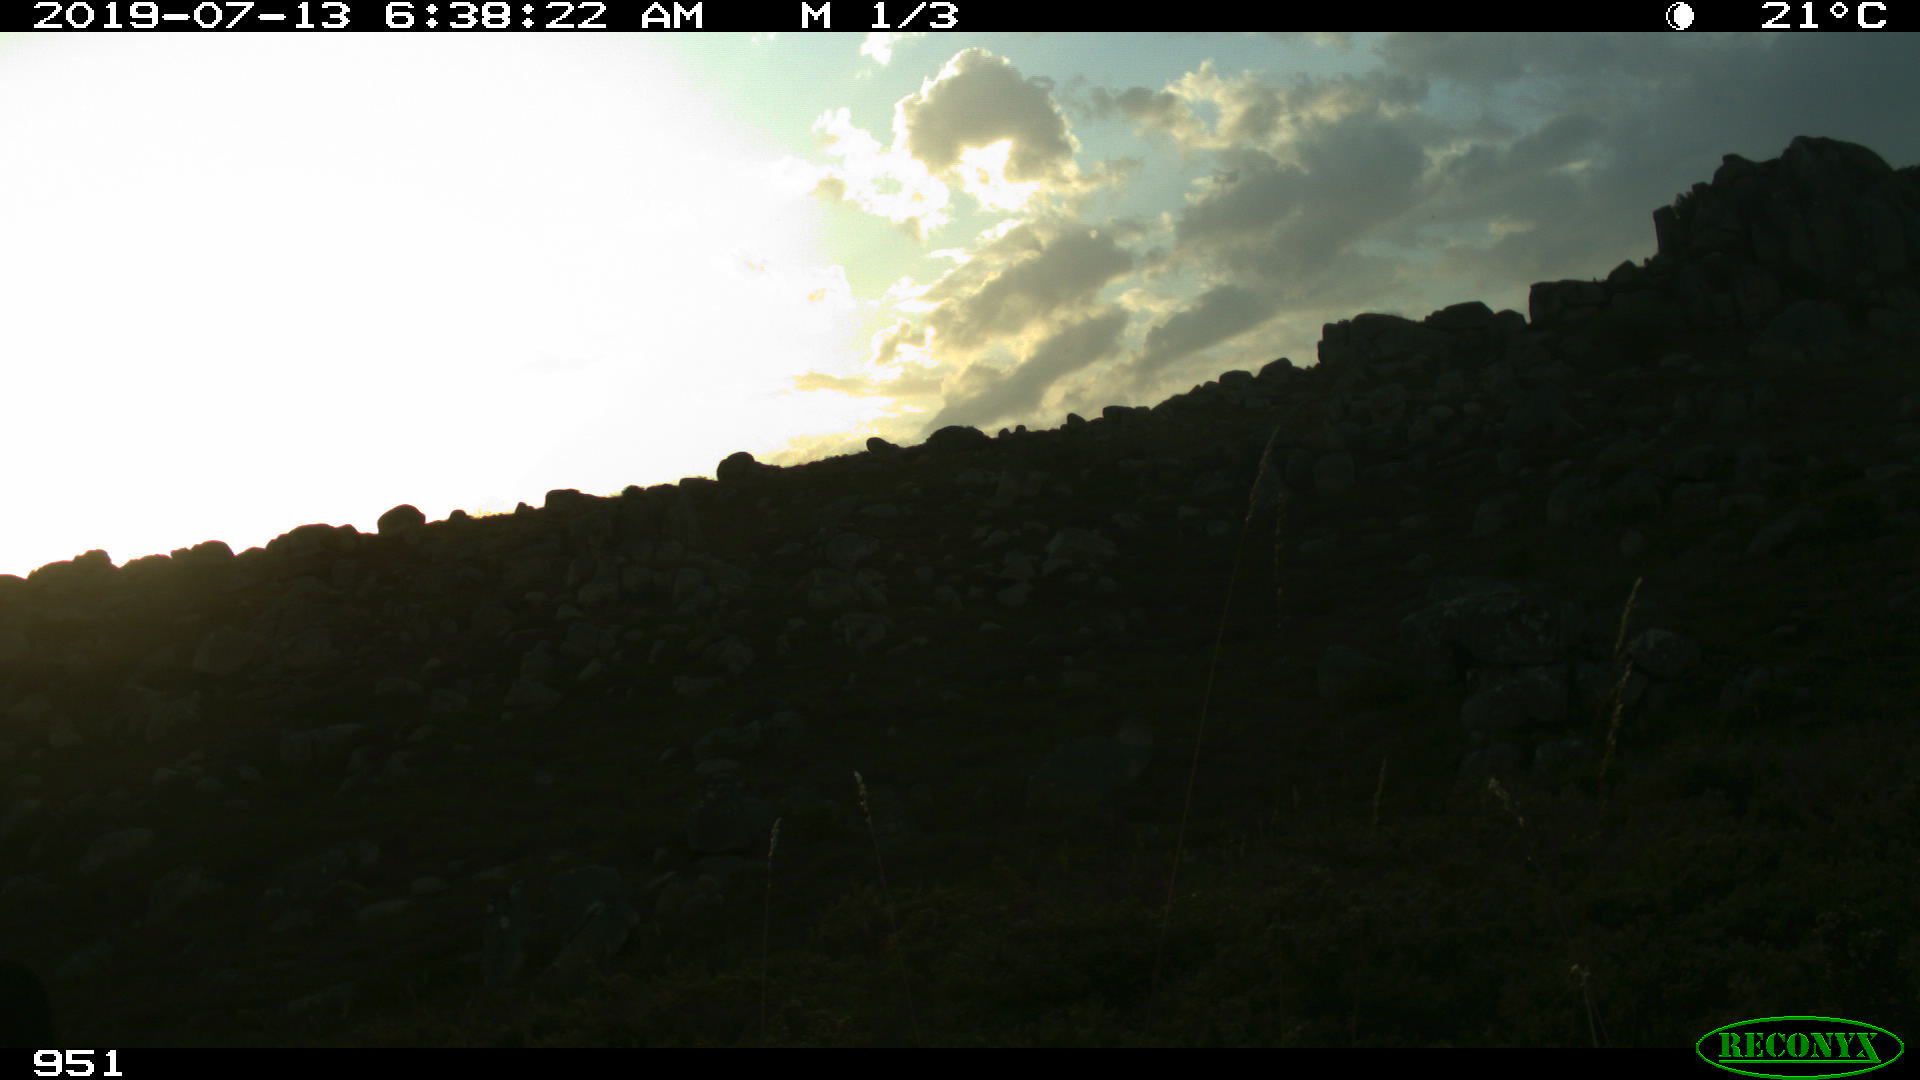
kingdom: Animalia
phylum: Chordata
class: Mammalia
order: Perissodactyla
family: Equidae
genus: Equus
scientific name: Equus caballus
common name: Horse
